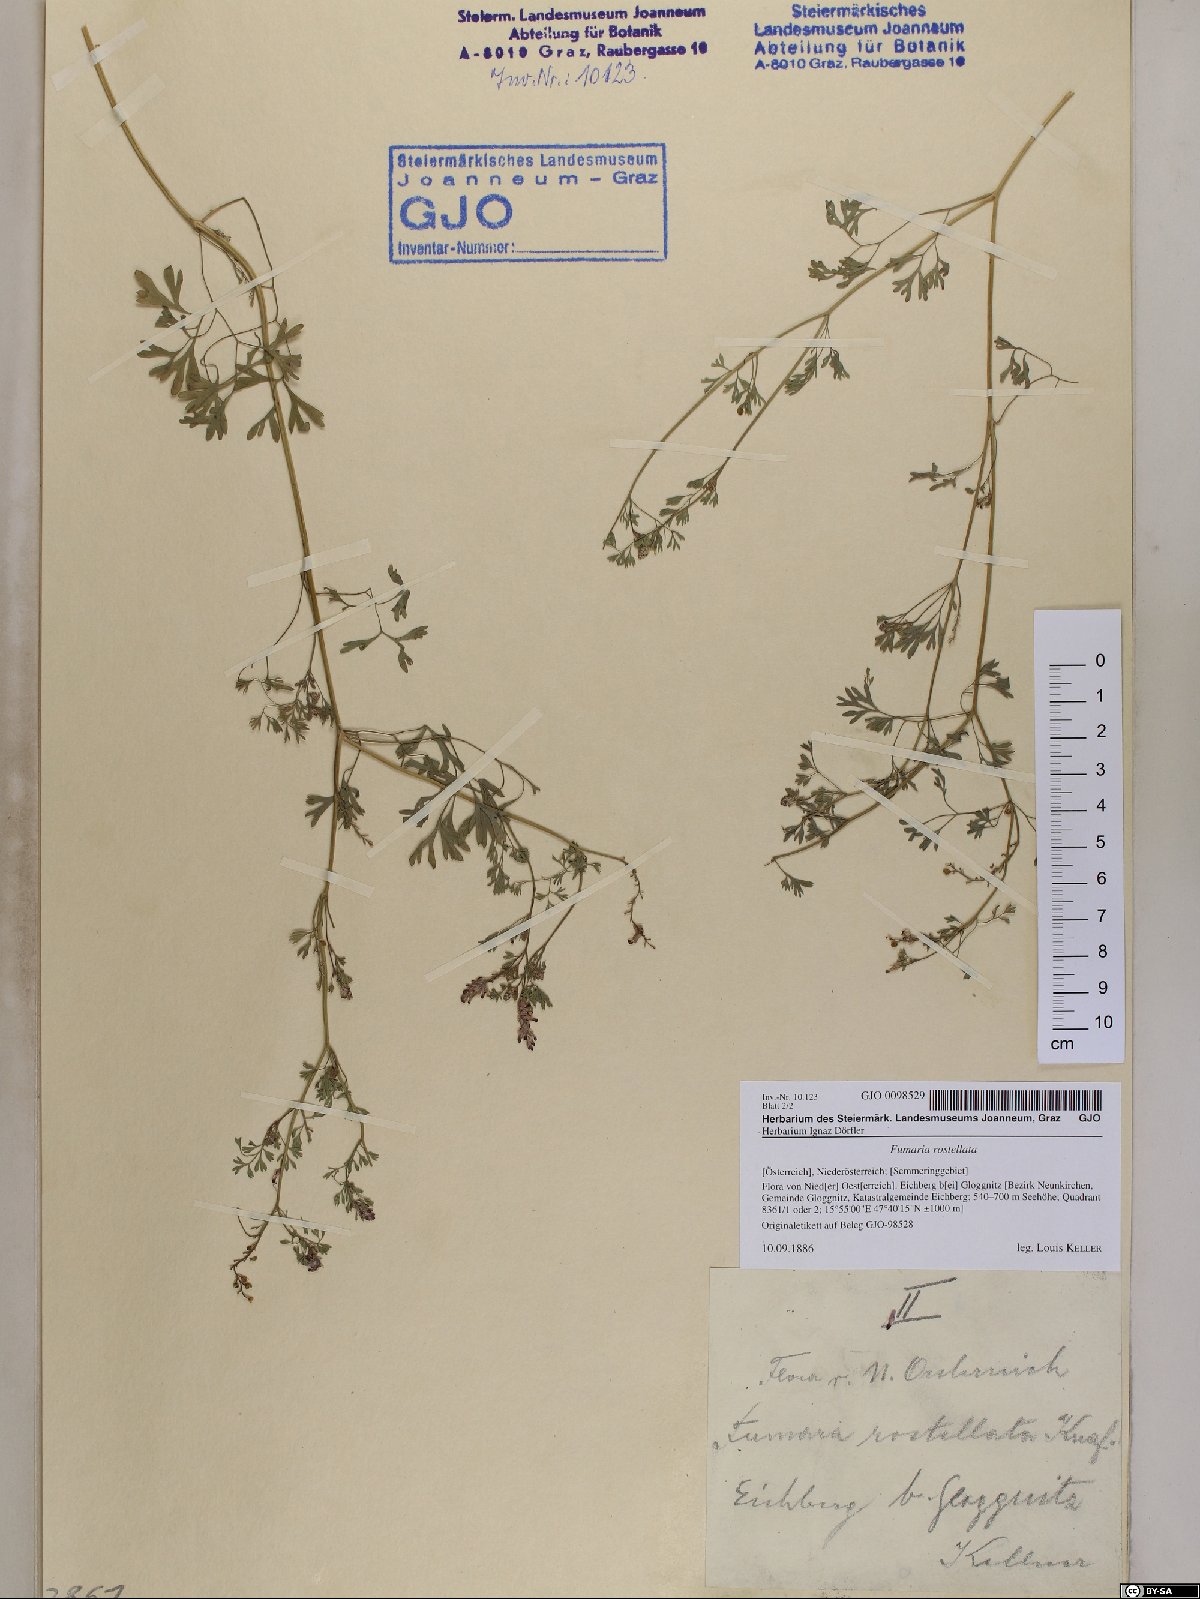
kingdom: Plantae
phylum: Tracheophyta
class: Magnoliopsida
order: Ranunculales
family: Papaveraceae
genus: Fumaria
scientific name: Fumaria rostellata
